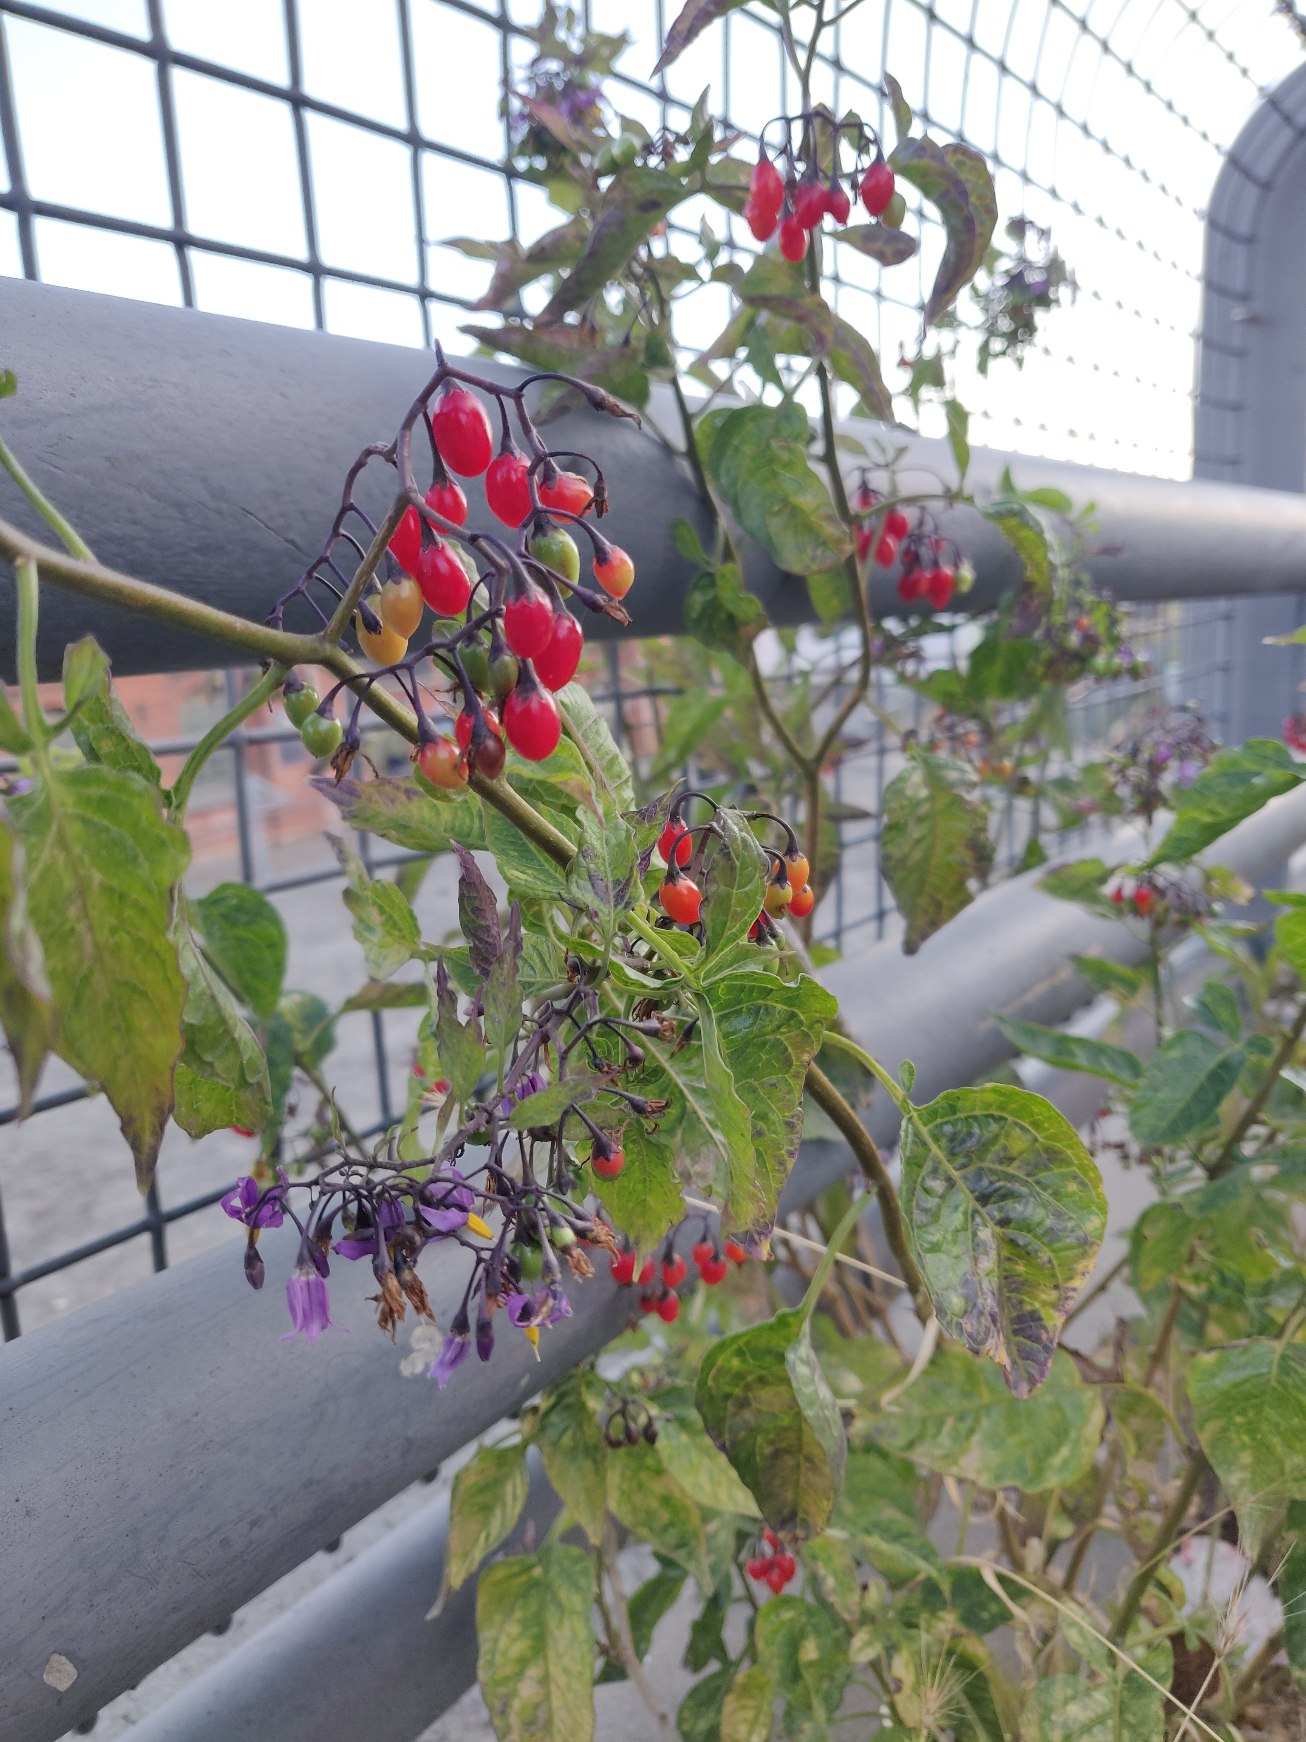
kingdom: Plantae
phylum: Tracheophyta
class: Magnoliopsida
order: Solanales
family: Solanaceae
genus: Solanum
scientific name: Solanum dulcamara
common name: Bittersød natskygge
